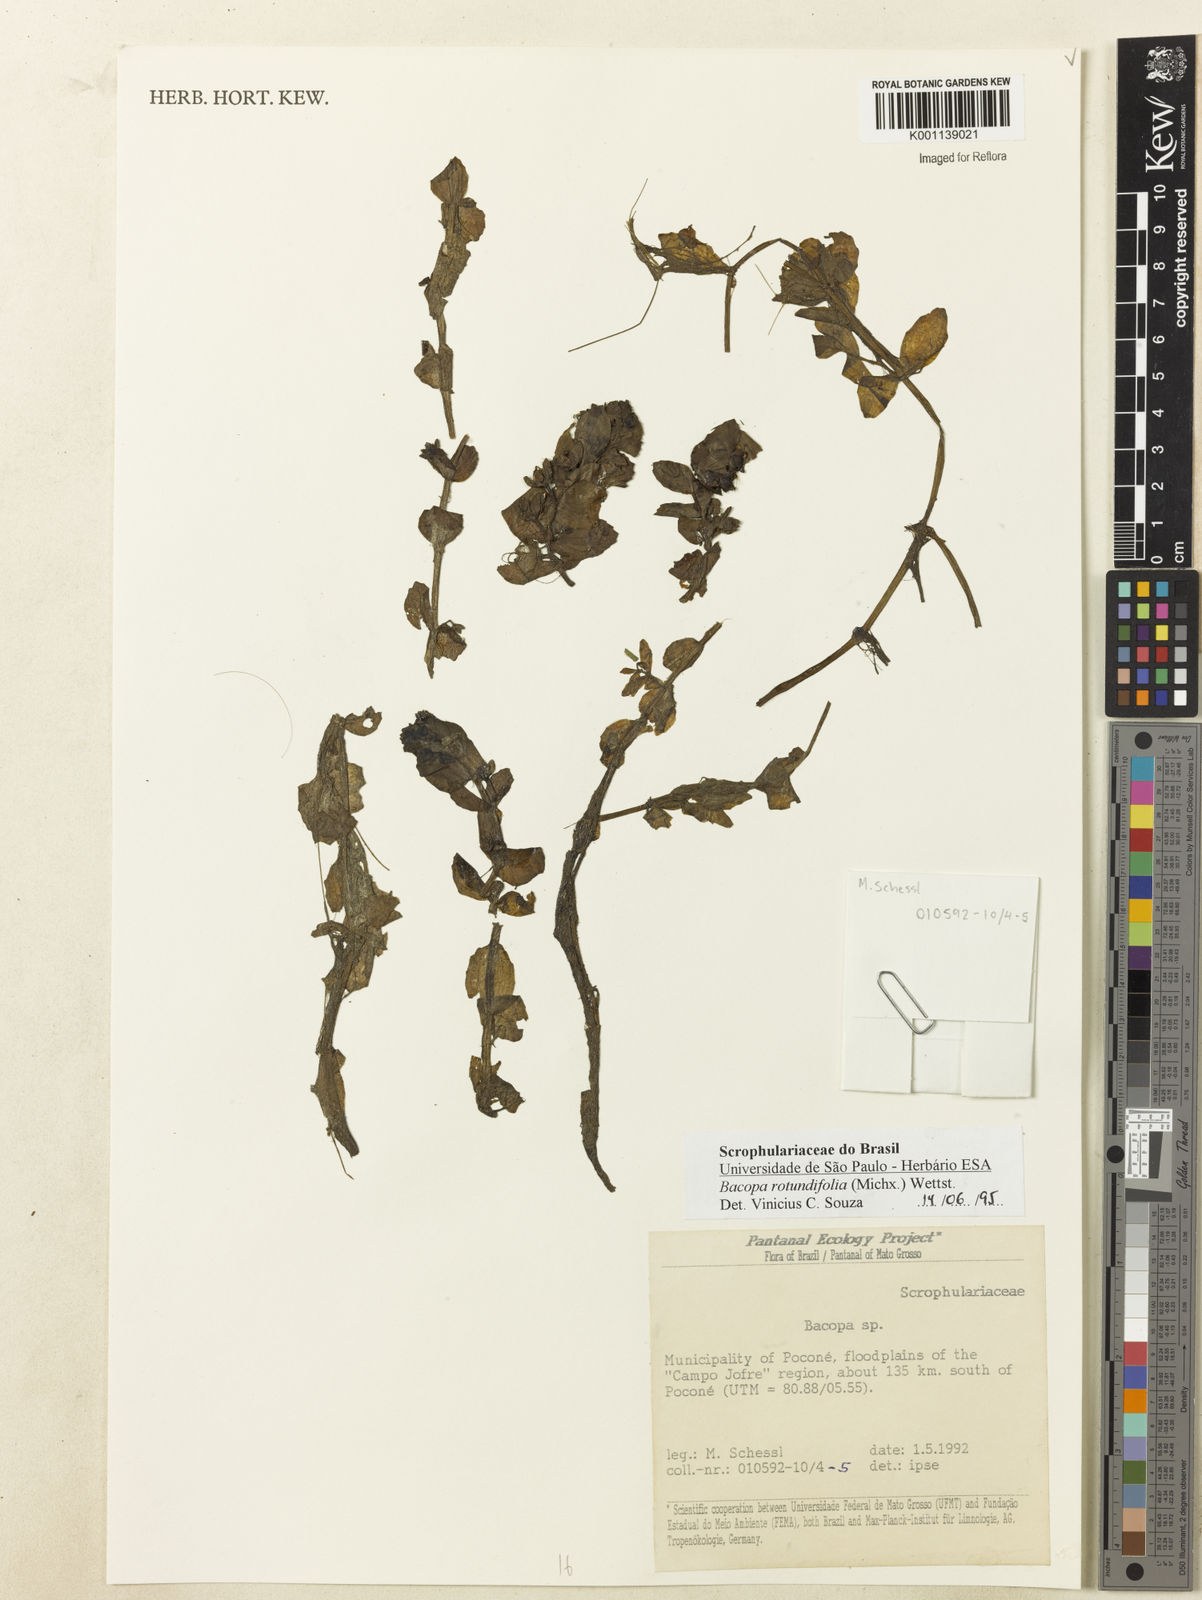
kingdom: Plantae
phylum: Tracheophyta
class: Magnoliopsida
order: Lamiales
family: Plantaginaceae
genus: Bacopa
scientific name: Bacopa rotundifolia
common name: Disc water hyssop
